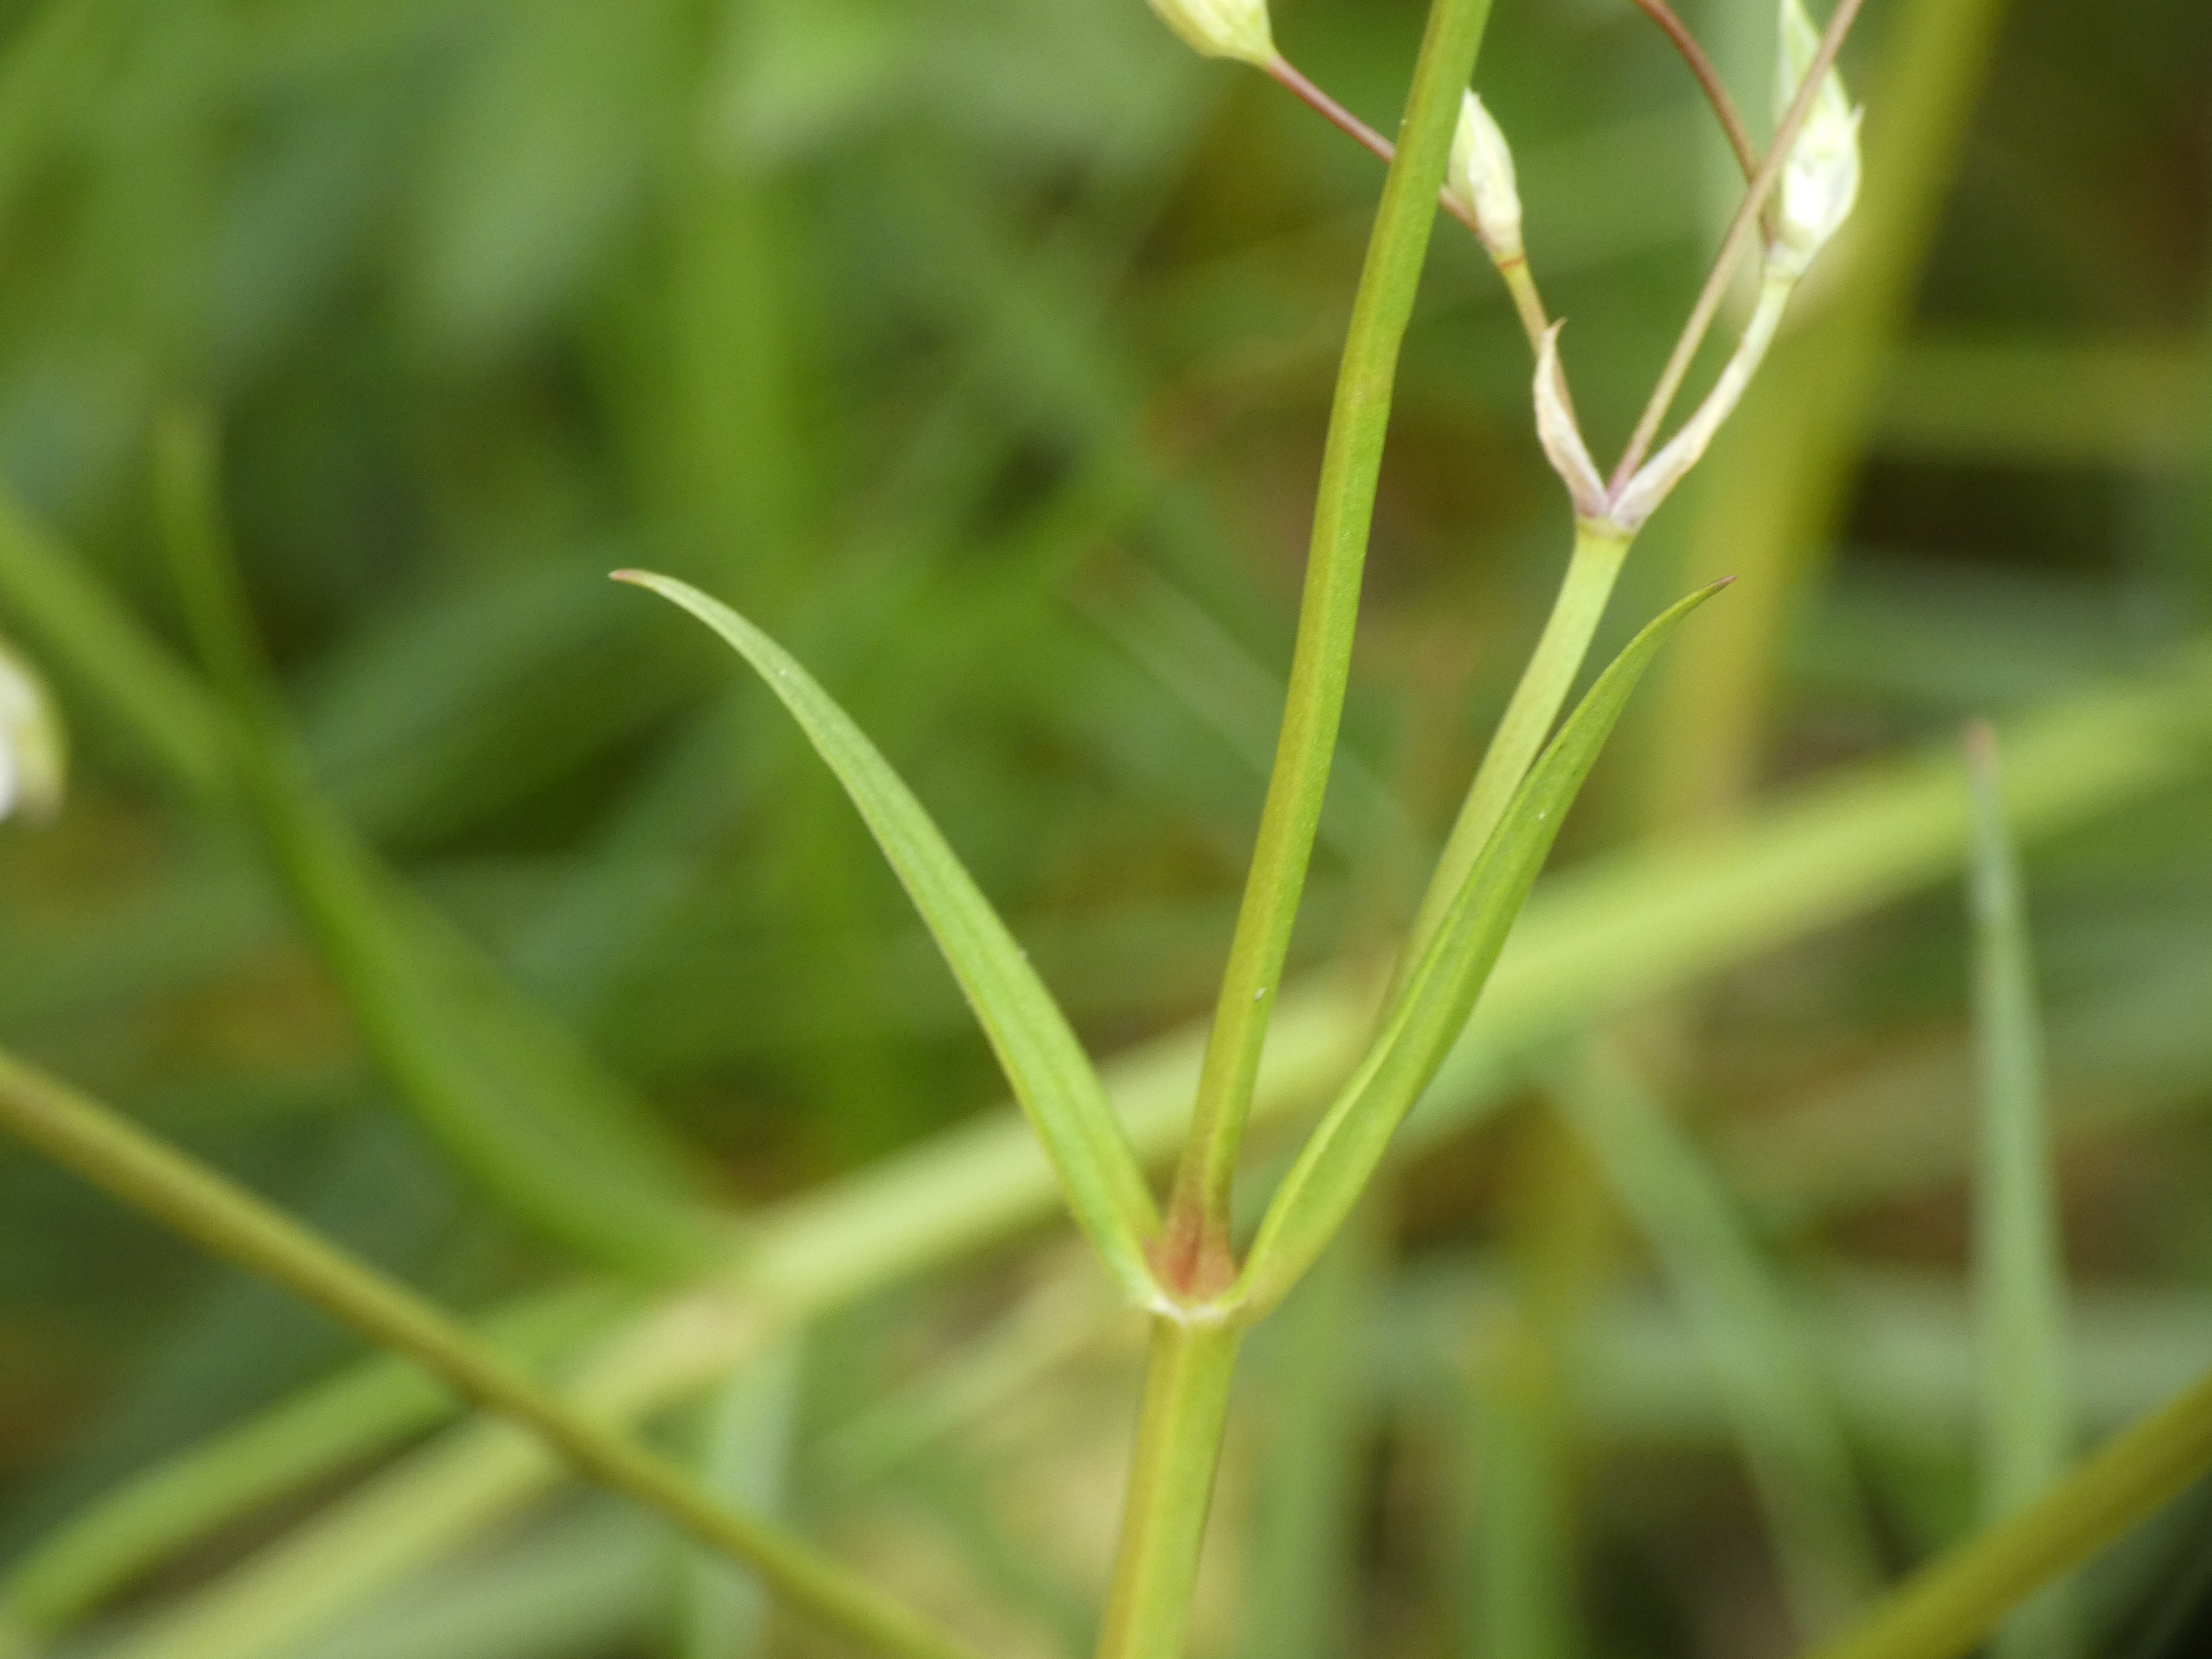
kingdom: Plantae
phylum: Tracheophyta
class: Magnoliopsida
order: Caryophyllales
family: Caryophyllaceae
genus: Stellaria
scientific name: Stellaria graminea
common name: Græsbladet fladstjerne
